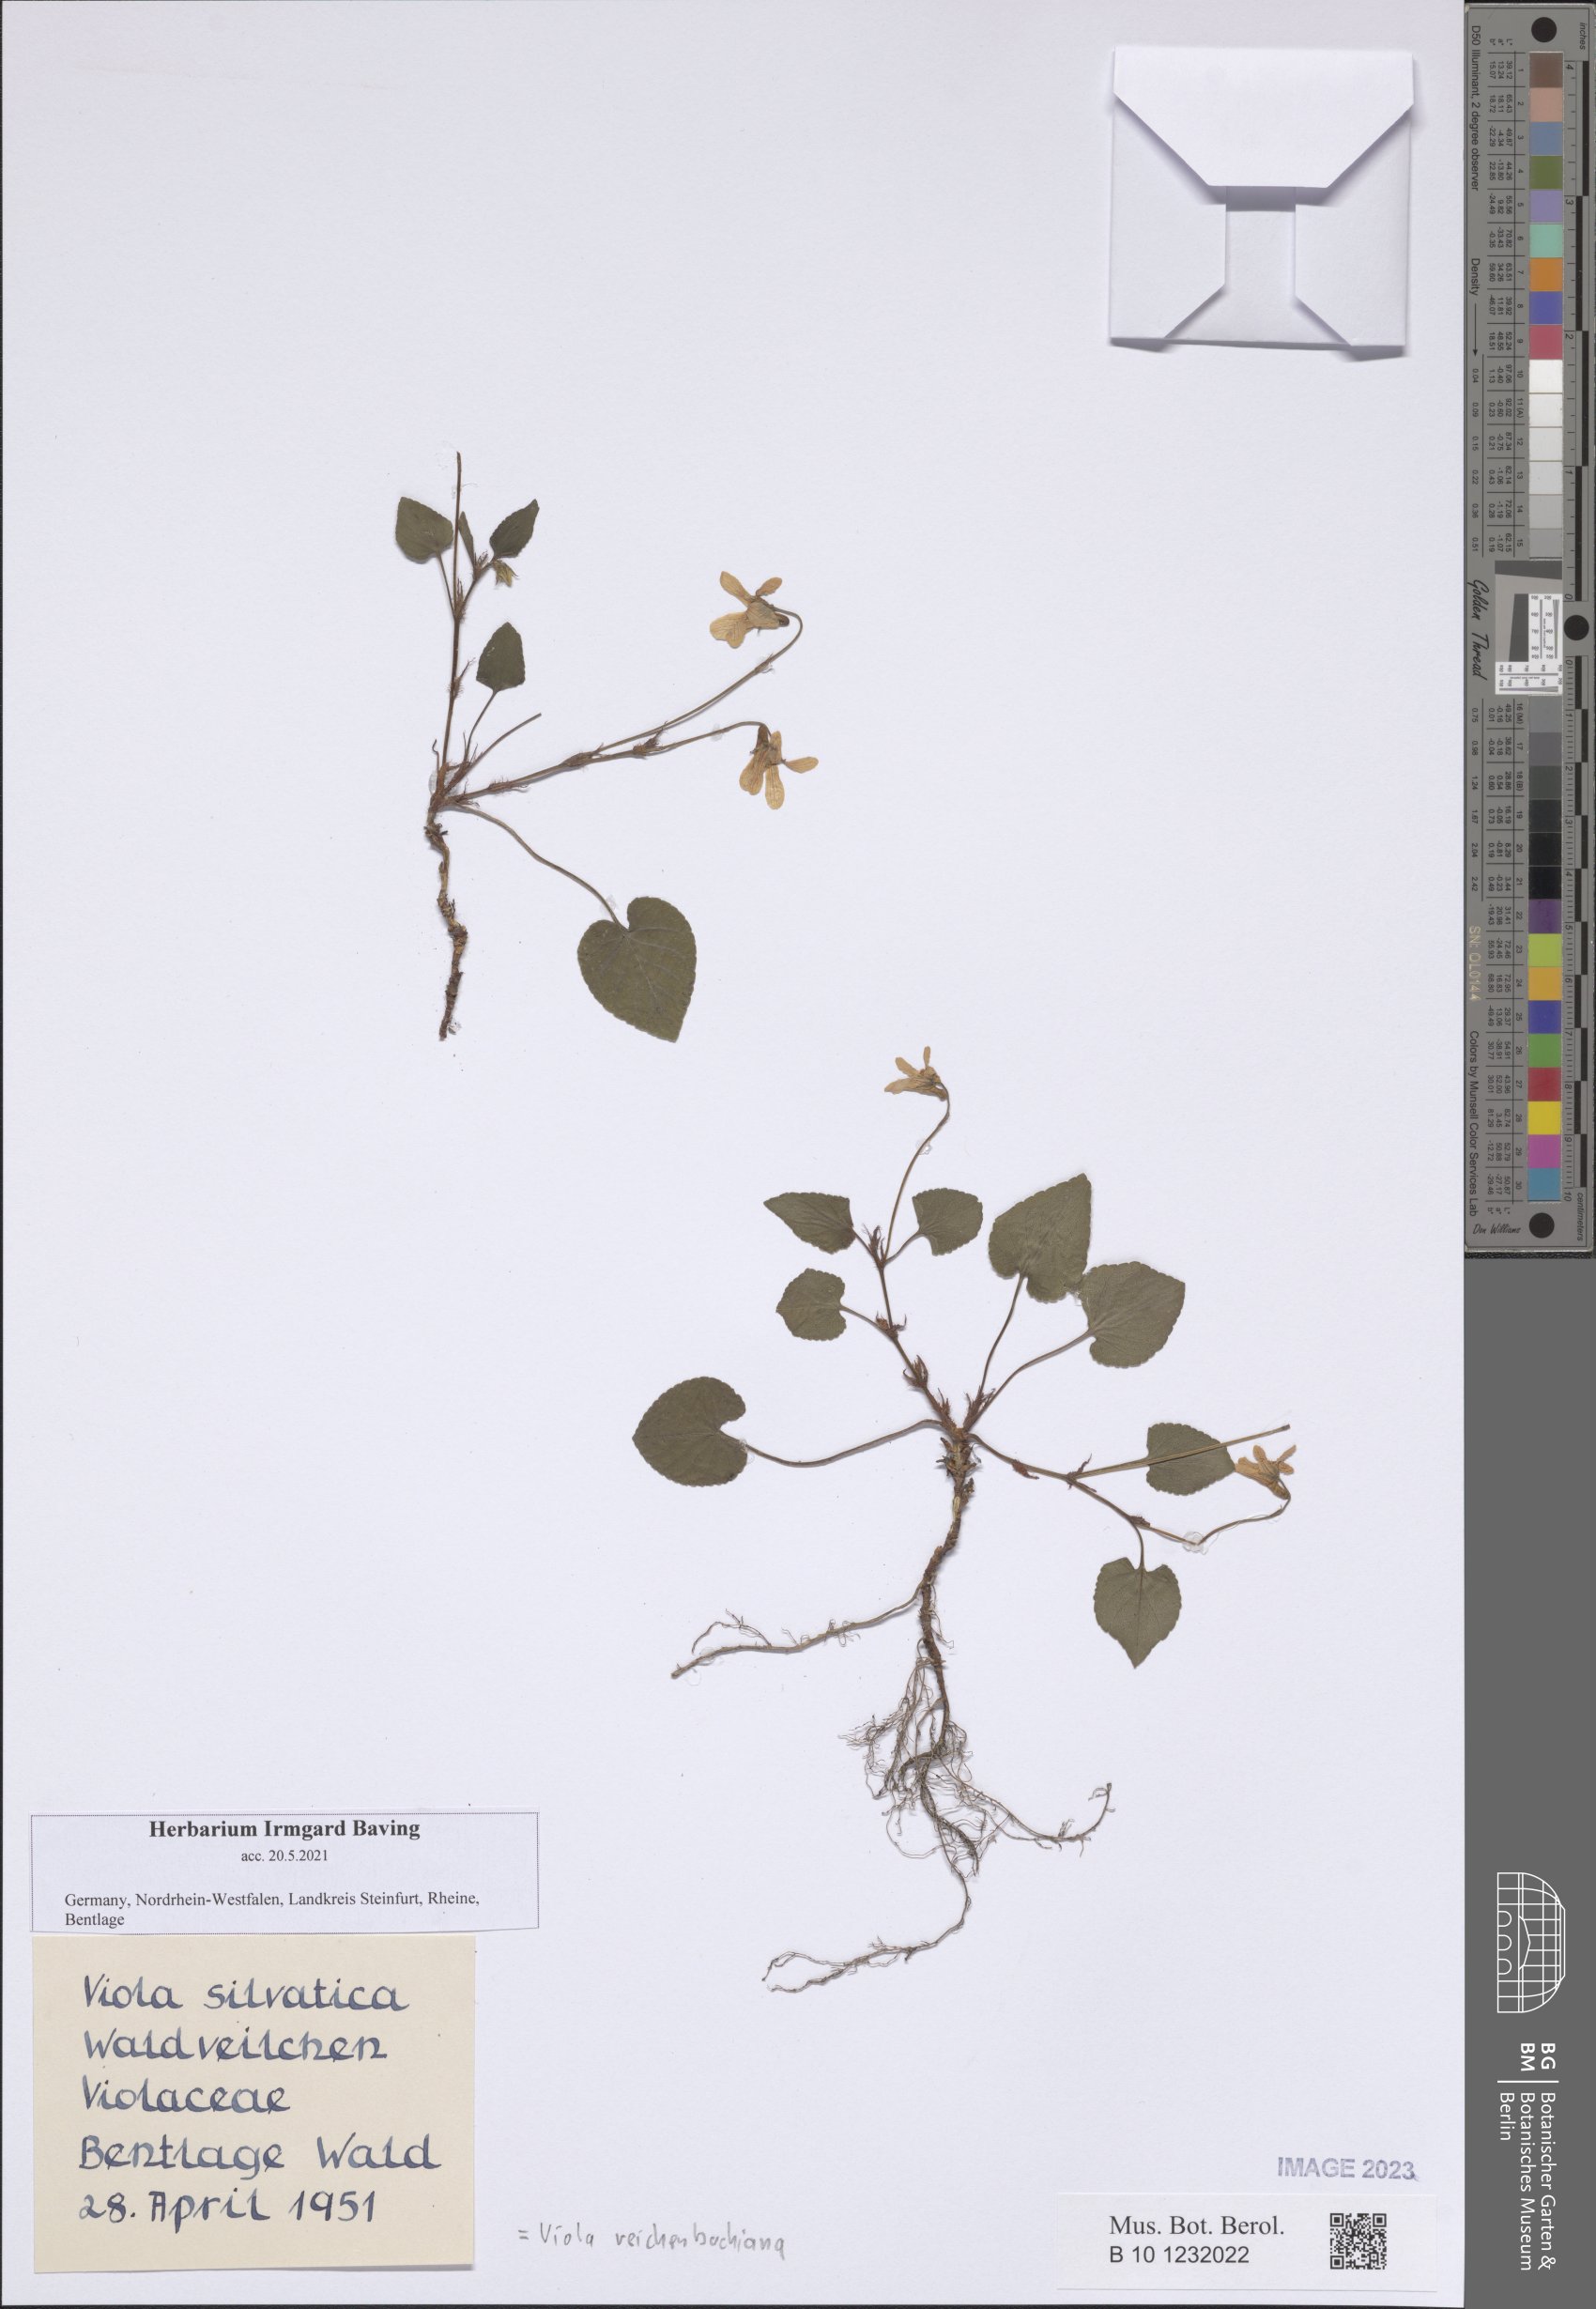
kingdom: Plantae
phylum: Tracheophyta
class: Magnoliopsida
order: Malpighiales
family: Violaceae
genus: Viola
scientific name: Viola reichenbachiana
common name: Early dog-violet
